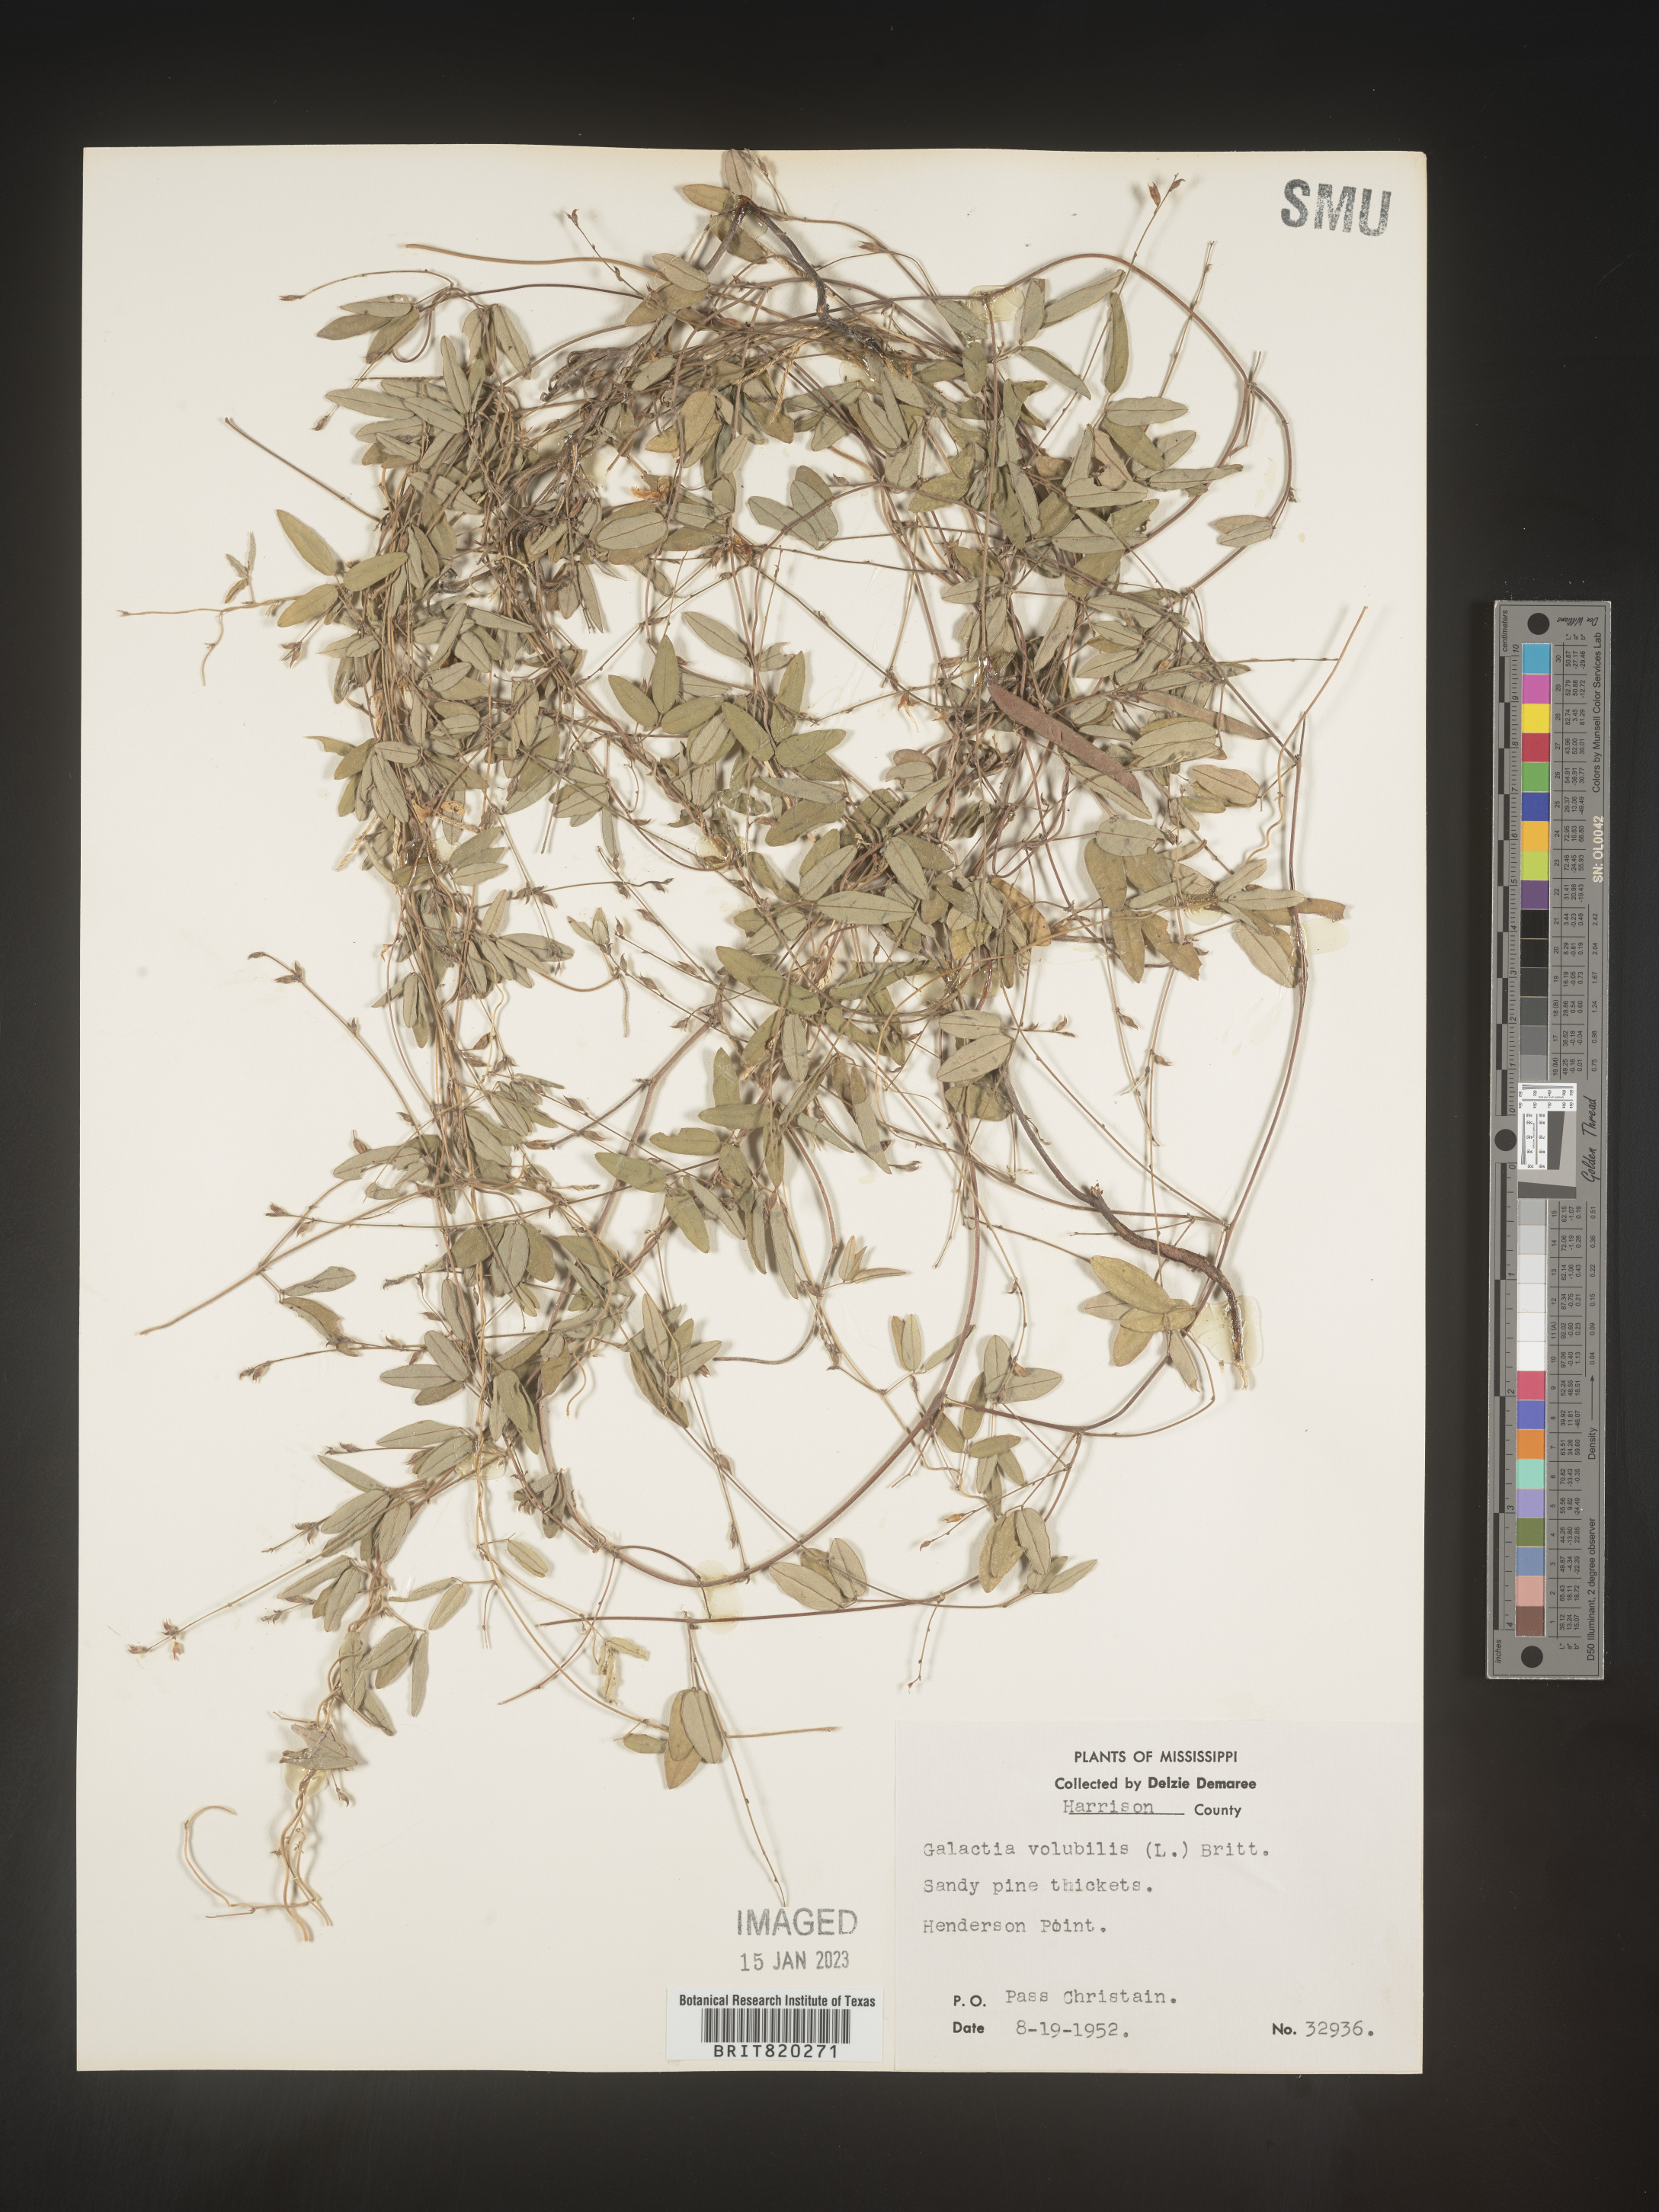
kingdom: Plantae
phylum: Tracheophyta
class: Magnoliopsida
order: Fabales
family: Fabaceae
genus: Galactia
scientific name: Galactia volubilis
